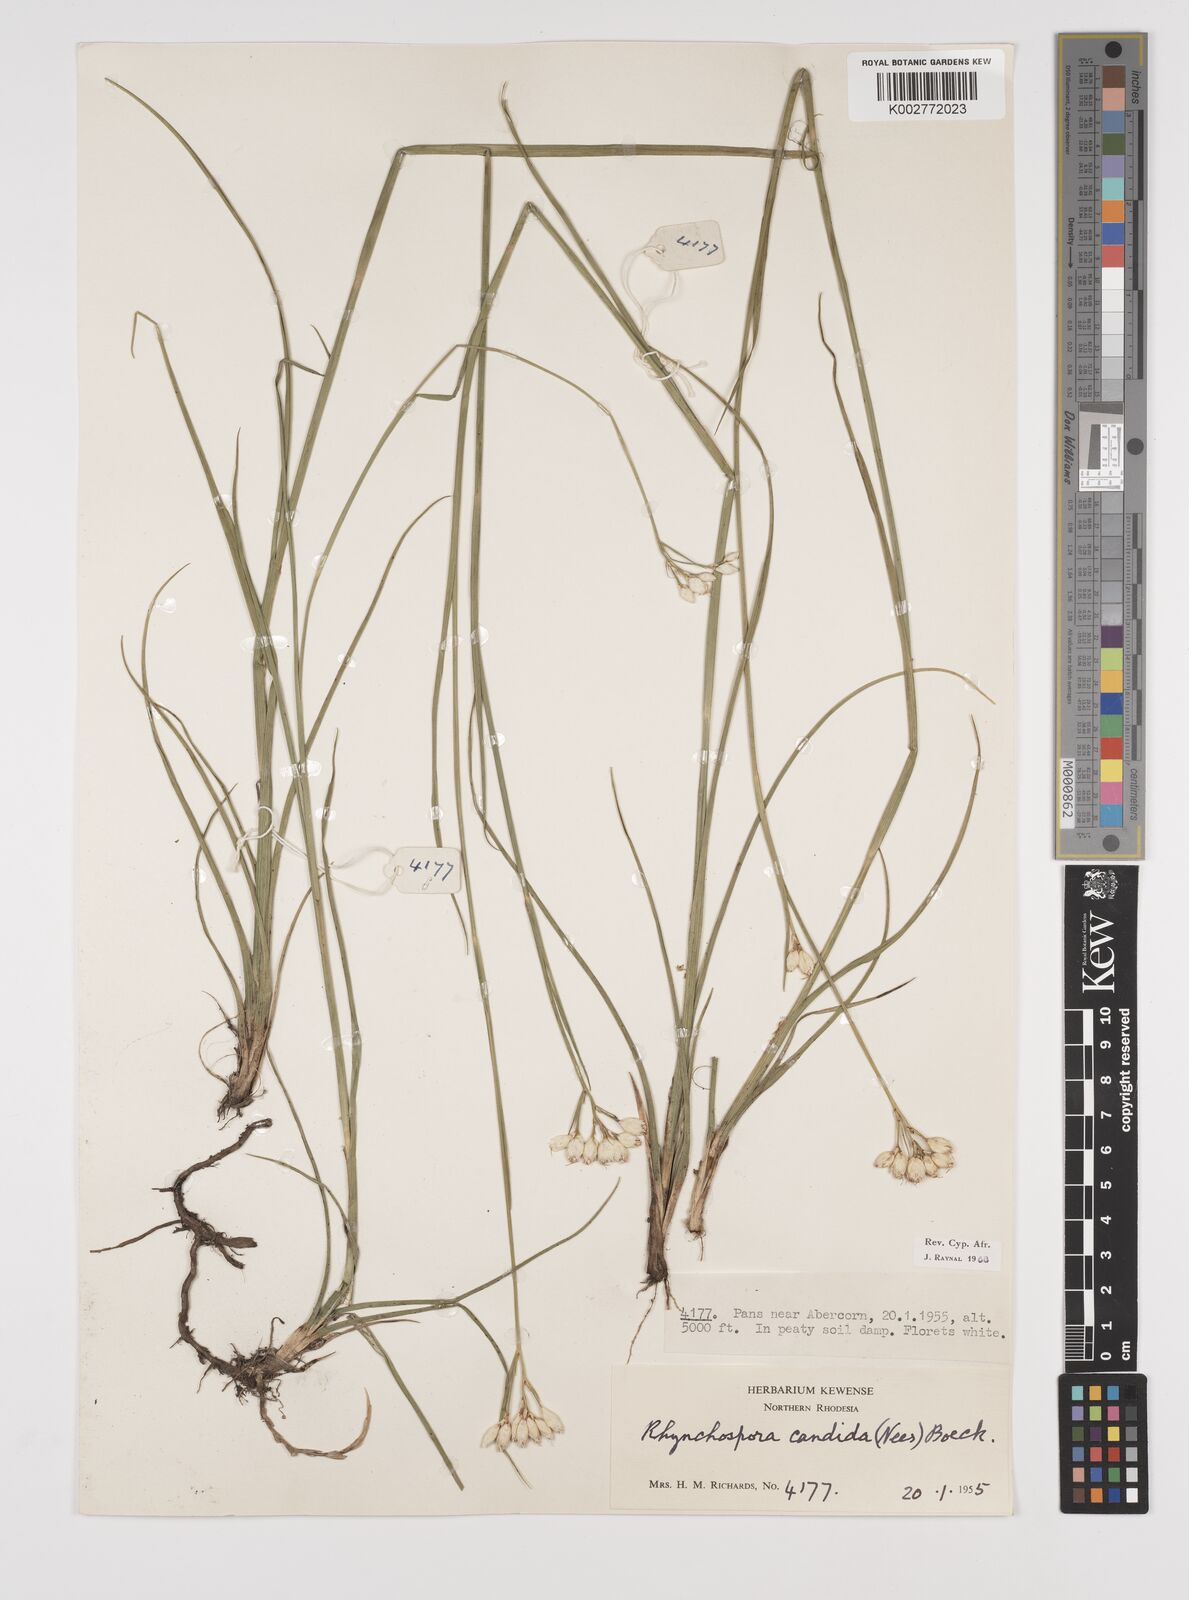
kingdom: Plantae
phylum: Tracheophyta
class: Liliopsida
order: Poales
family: Cyperaceae
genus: Rhynchospora
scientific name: Rhynchospora candida
